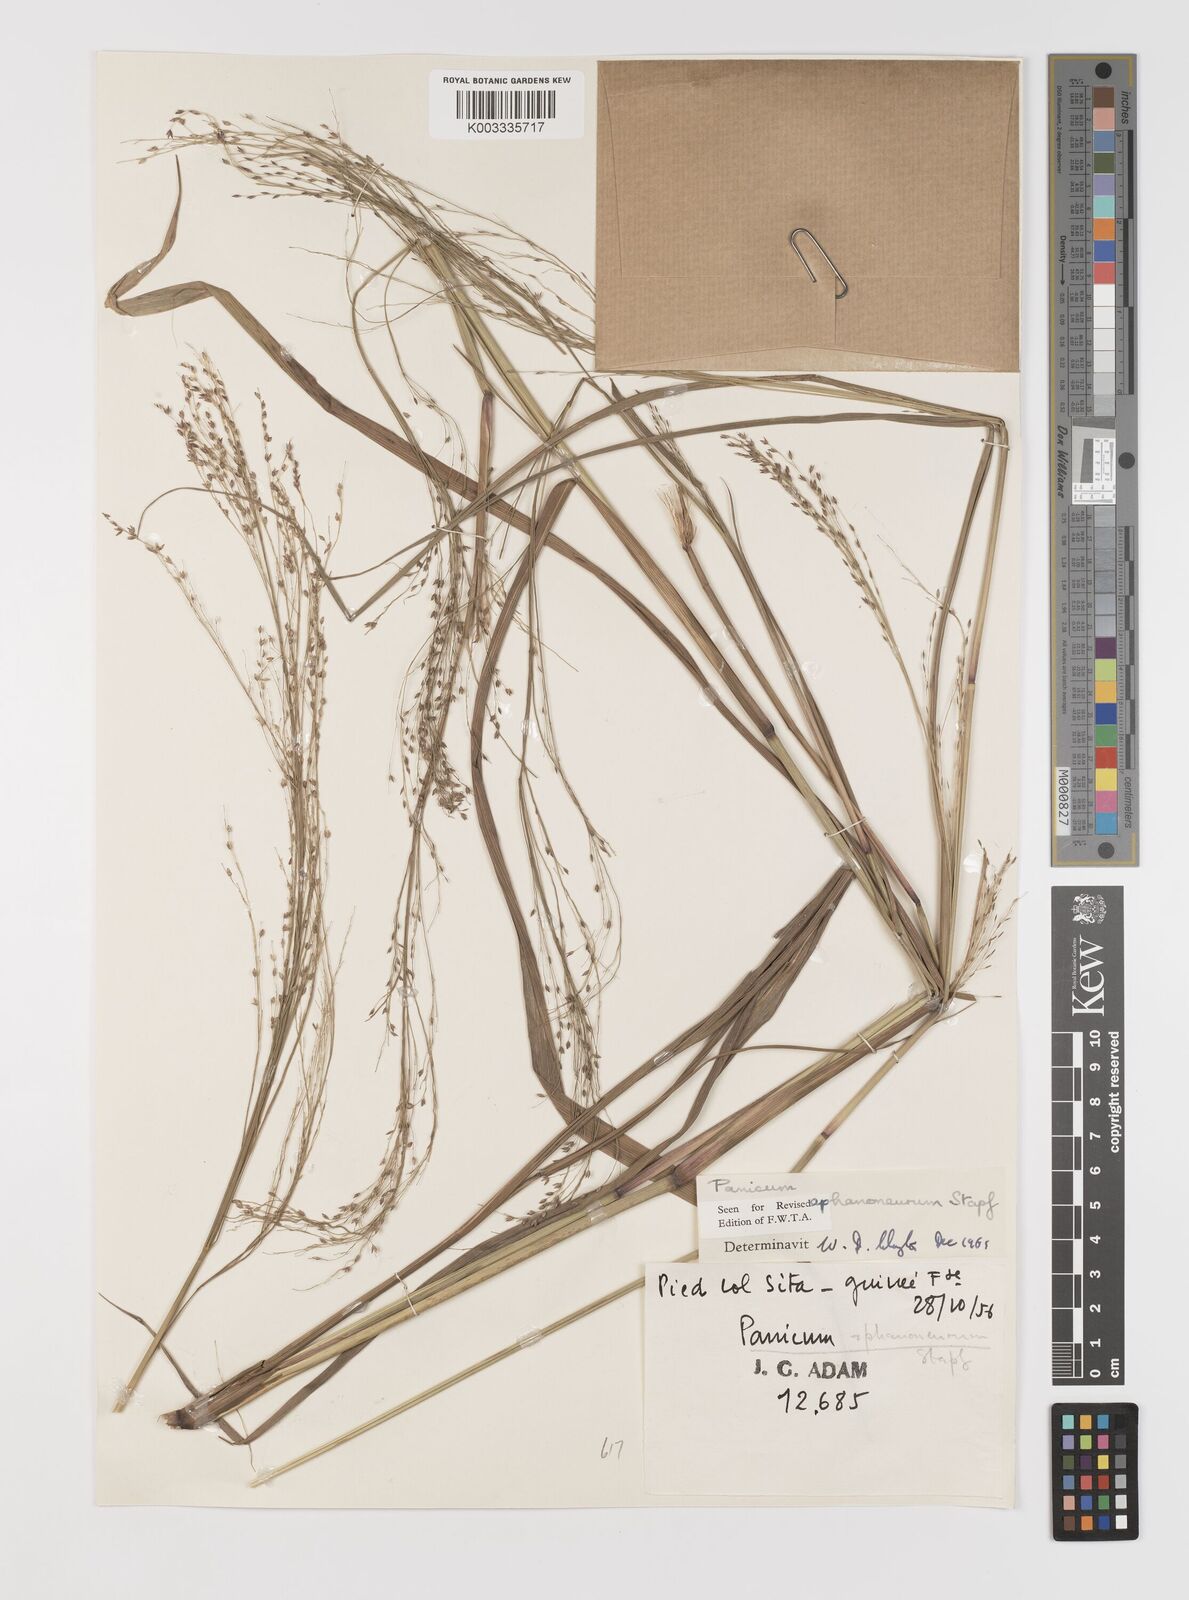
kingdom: Plantae
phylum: Tracheophyta
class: Liliopsida
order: Poales
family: Poaceae
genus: Panicum
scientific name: Panicum fluviicola
